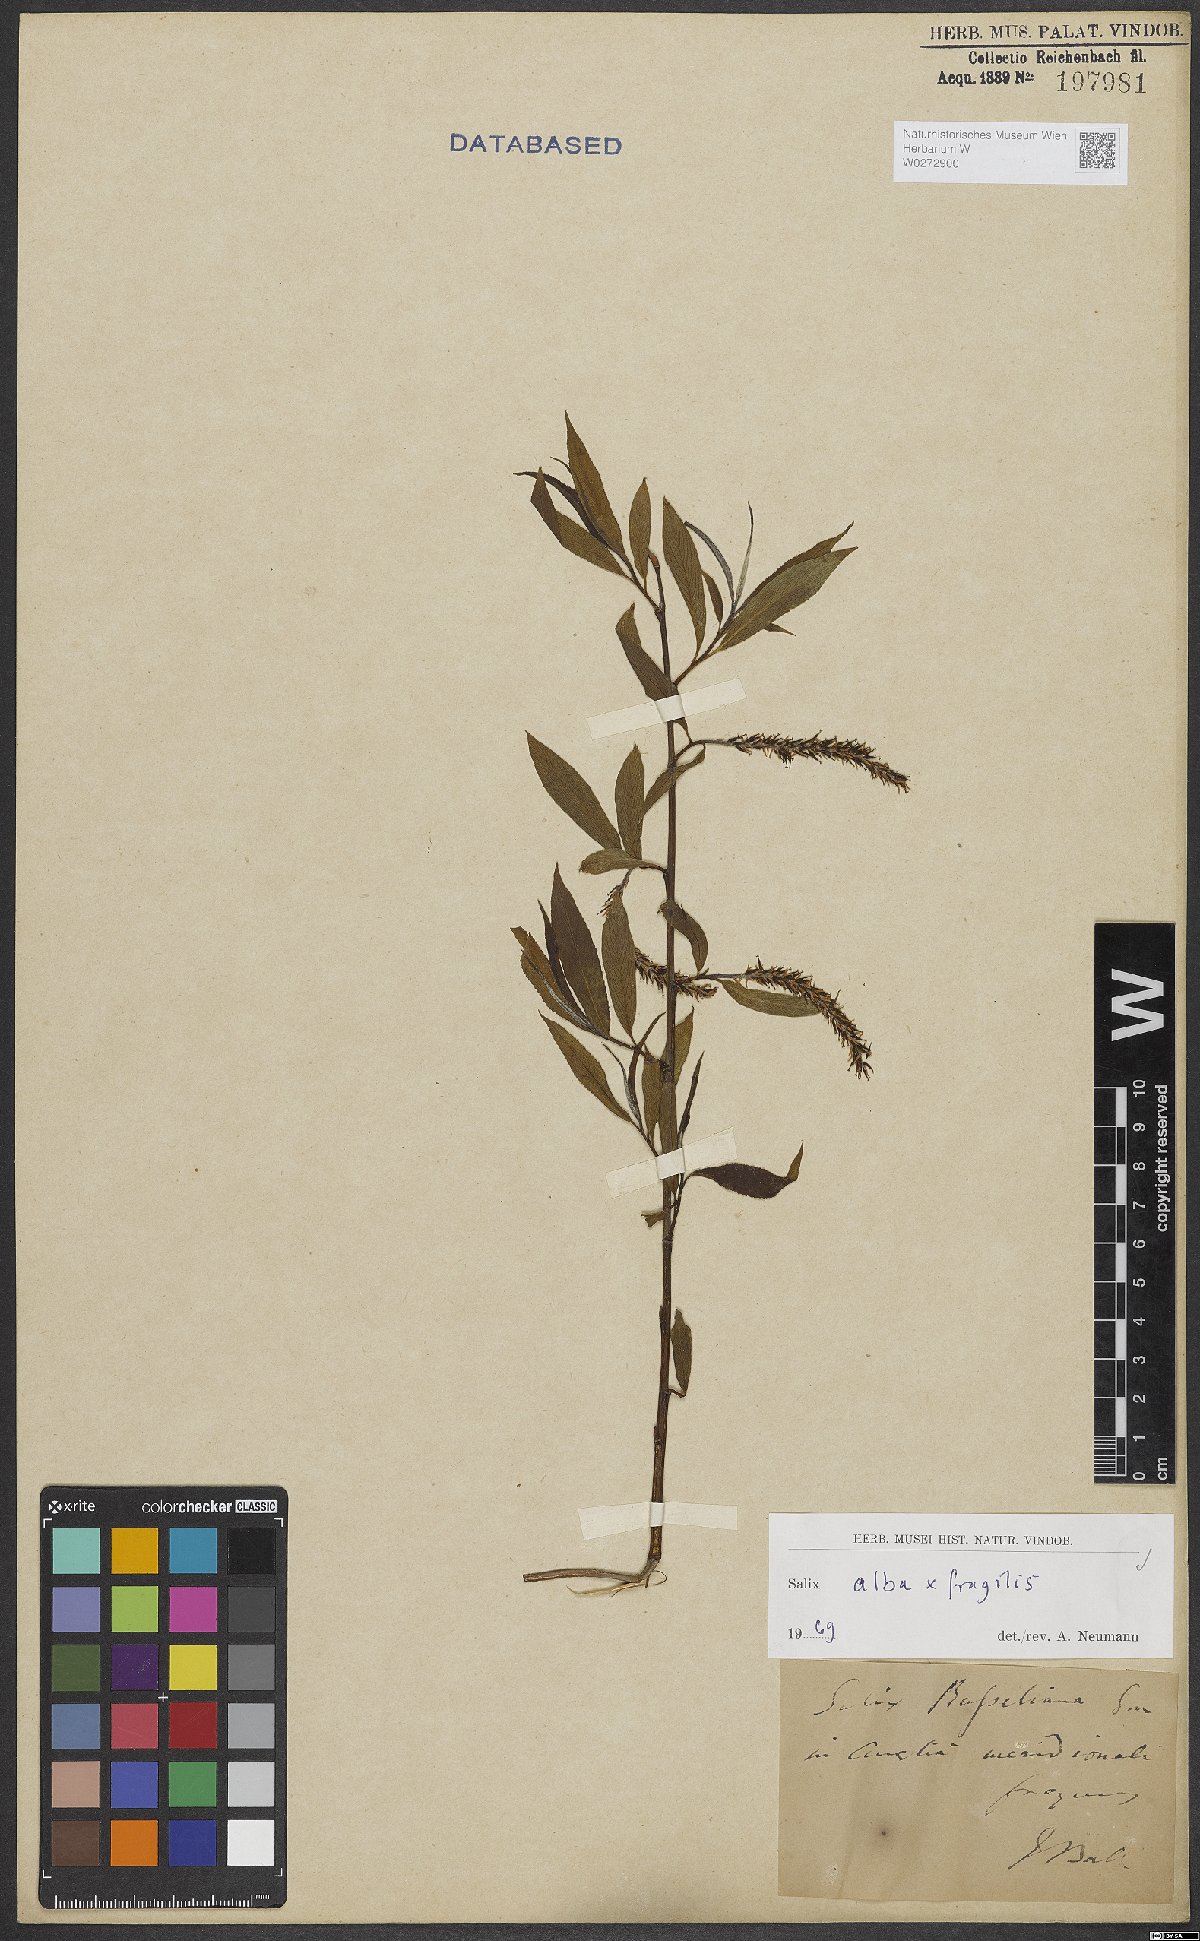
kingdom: Plantae
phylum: Tracheophyta
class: Magnoliopsida
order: Malpighiales
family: Salicaceae
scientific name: Salicaceae
